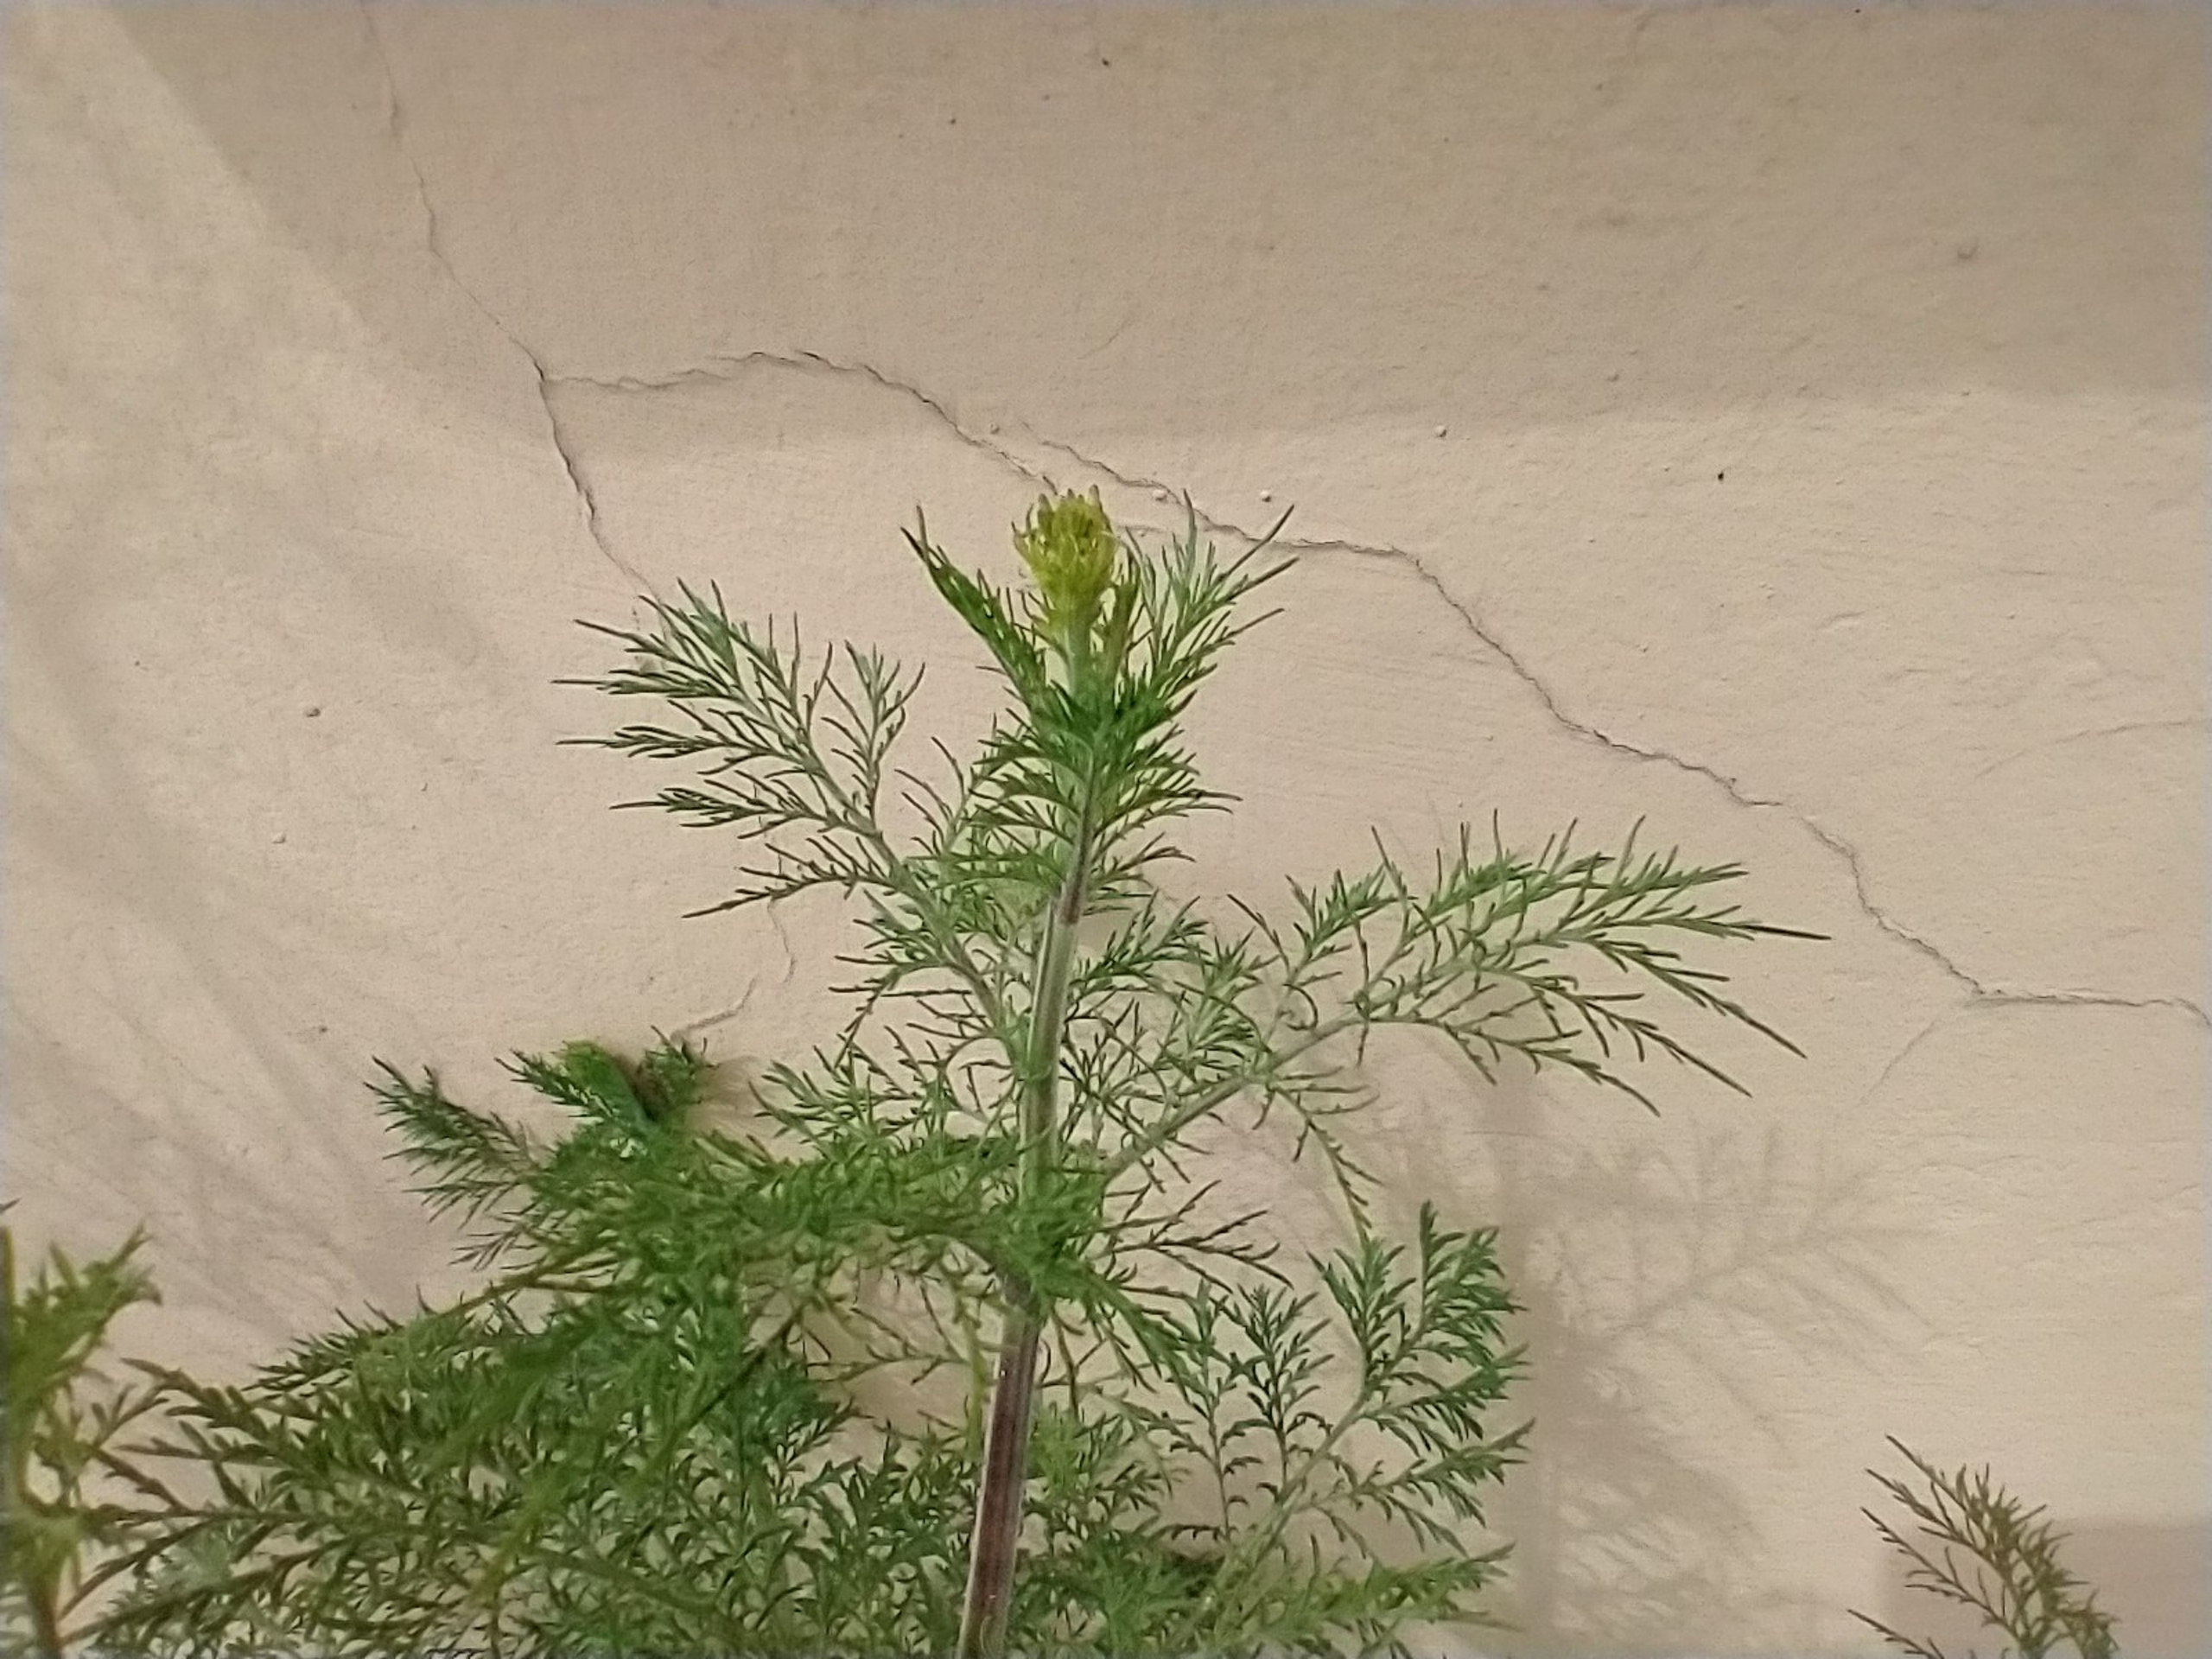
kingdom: Plantae
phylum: Tracheophyta
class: Magnoliopsida
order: Brassicales
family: Brassicaceae
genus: Descurainia
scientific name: Descurainia sophia
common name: Finbladet vejsennep
